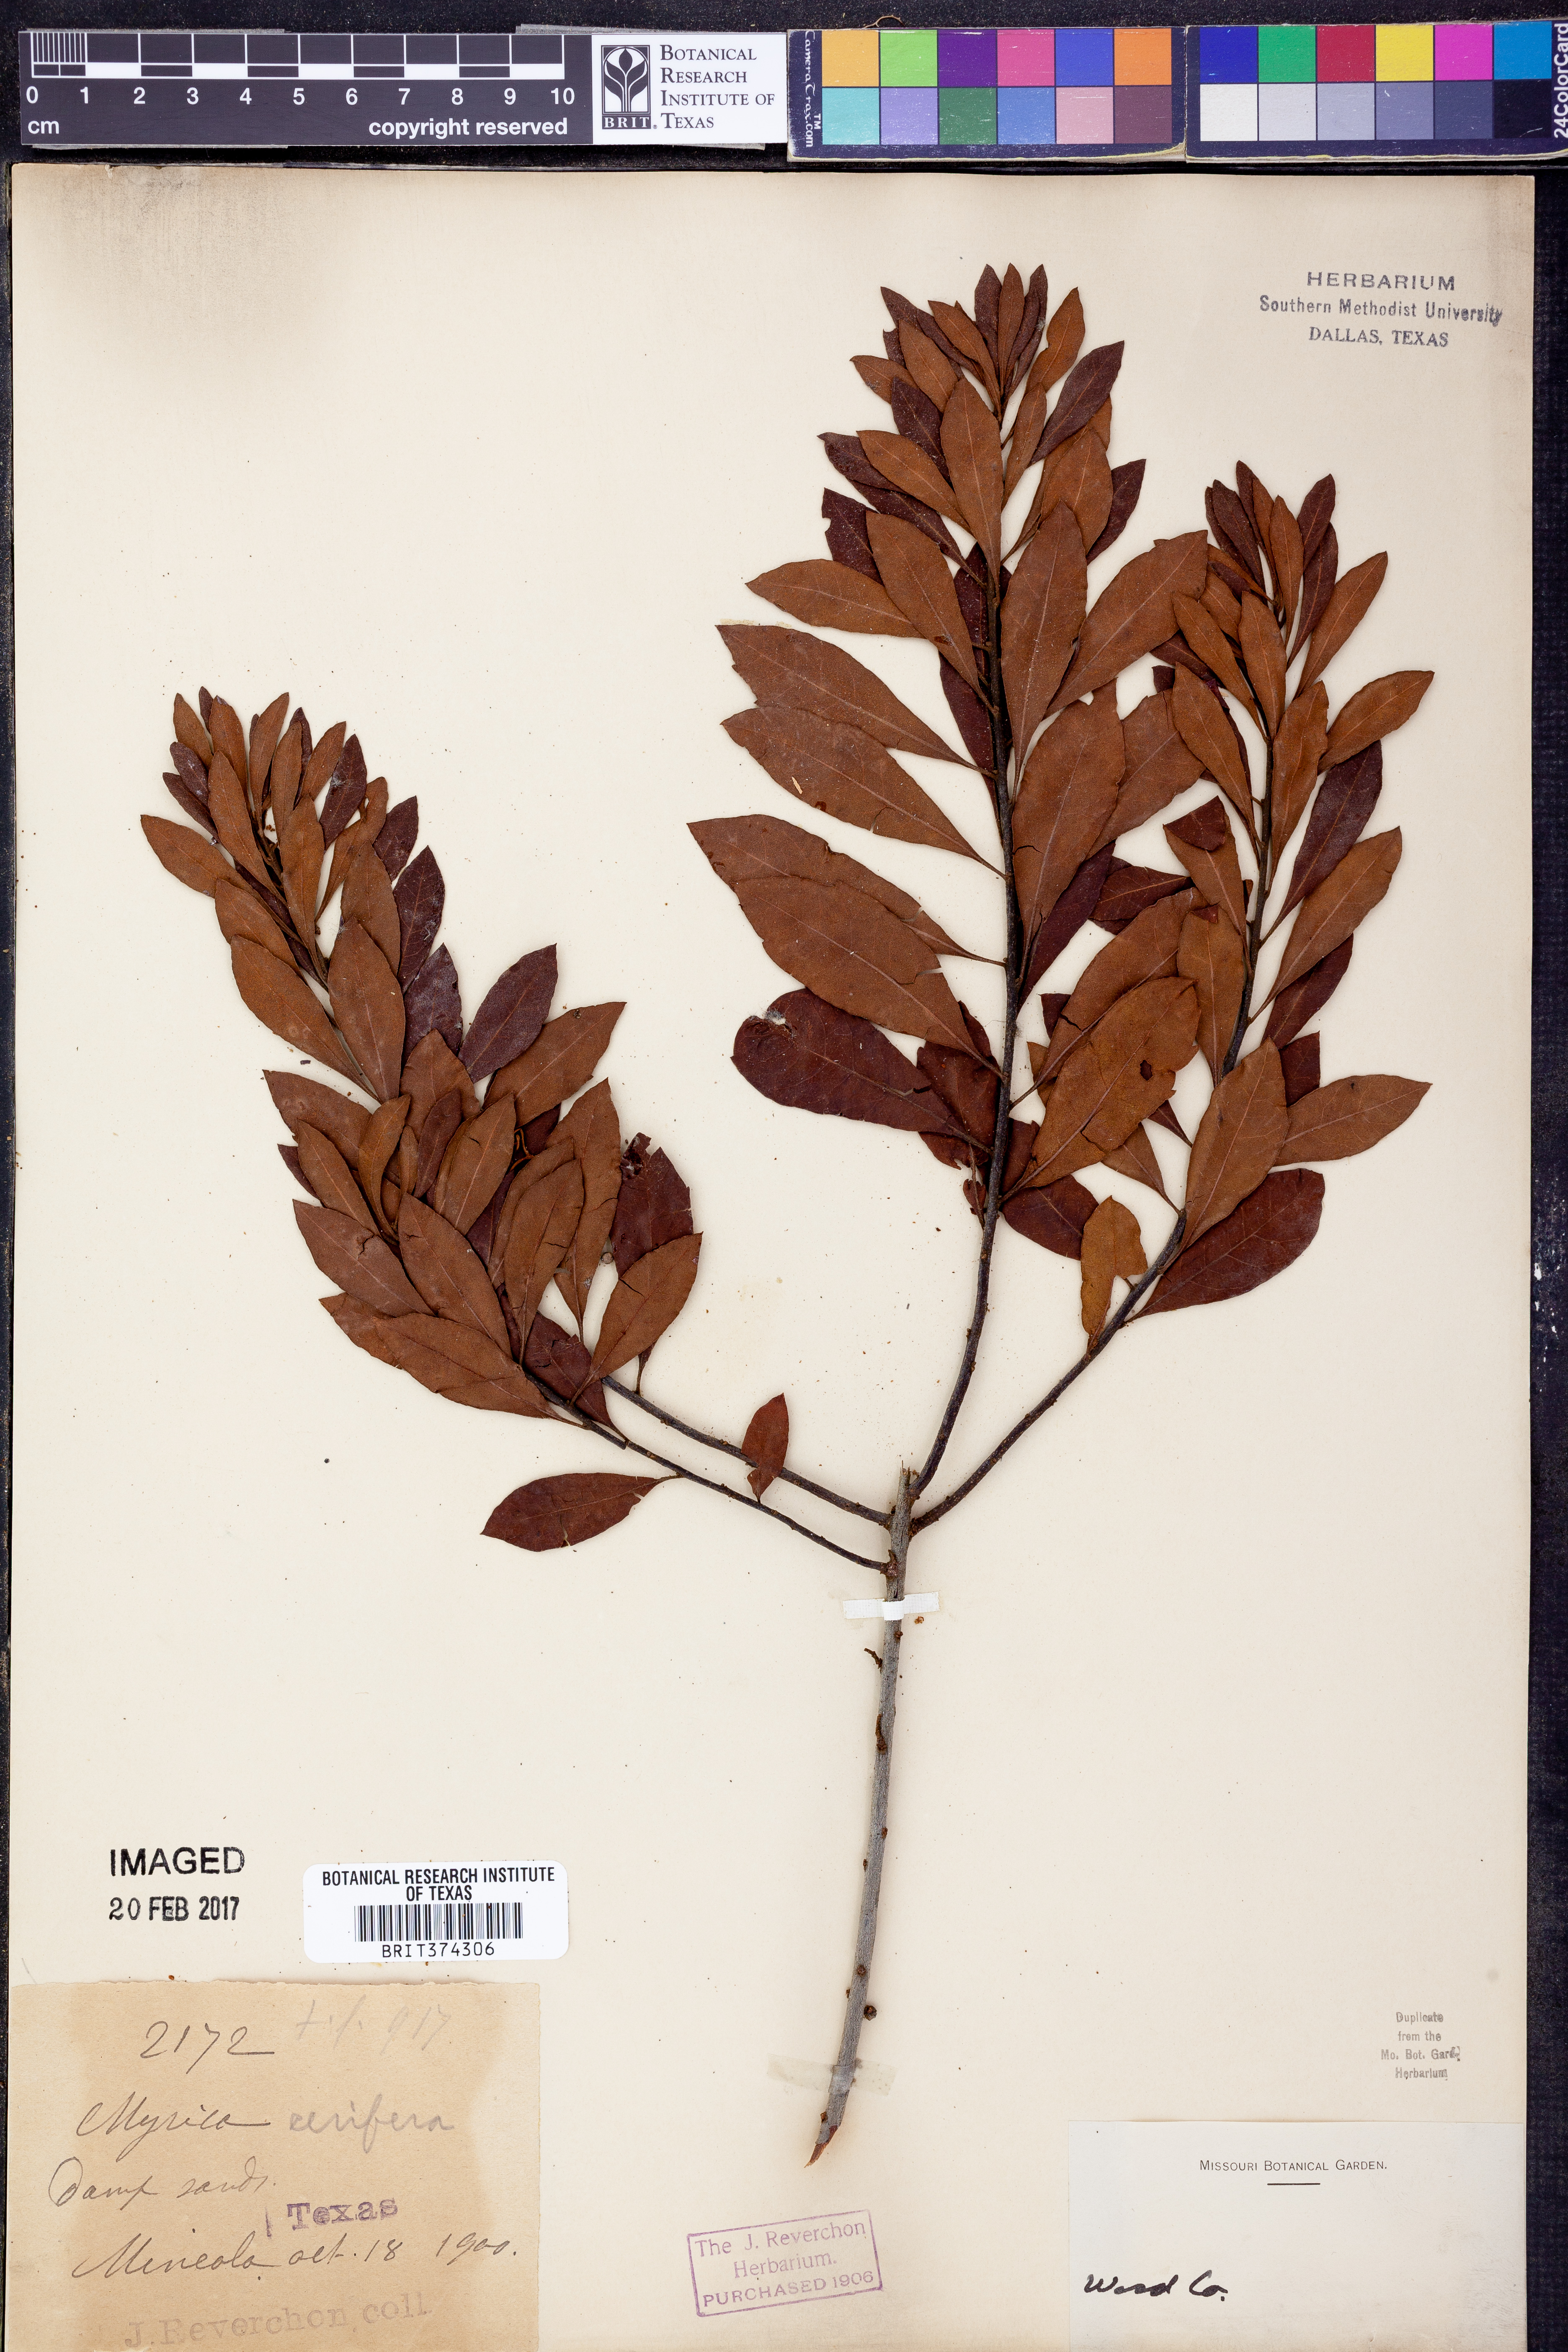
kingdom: Plantae
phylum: Tracheophyta
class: Magnoliopsida
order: Fagales
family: Myricaceae
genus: Morella
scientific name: Morella cerifera
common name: Wax myrtle
